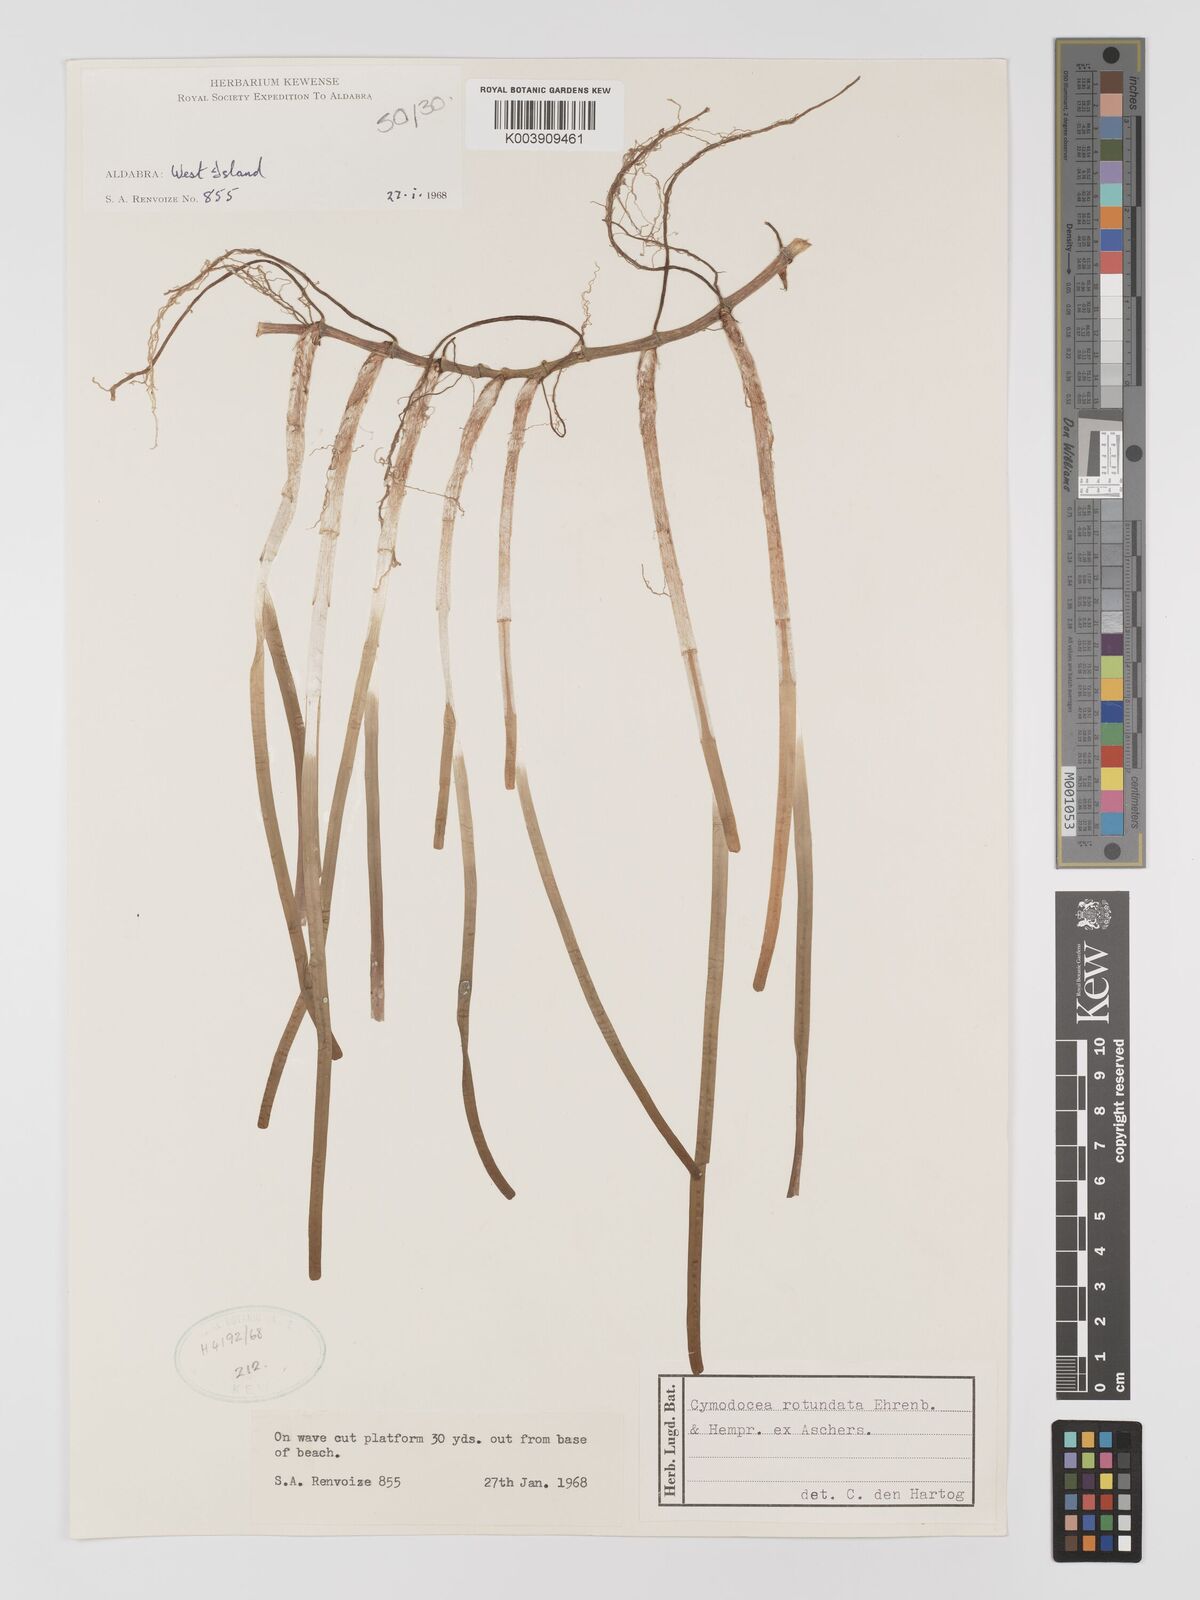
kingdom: Plantae
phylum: Tracheophyta
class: Liliopsida
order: Alismatales
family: Cymodoceaceae
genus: Cymodocea
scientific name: Cymodocea rotundata
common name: Species code: cr
